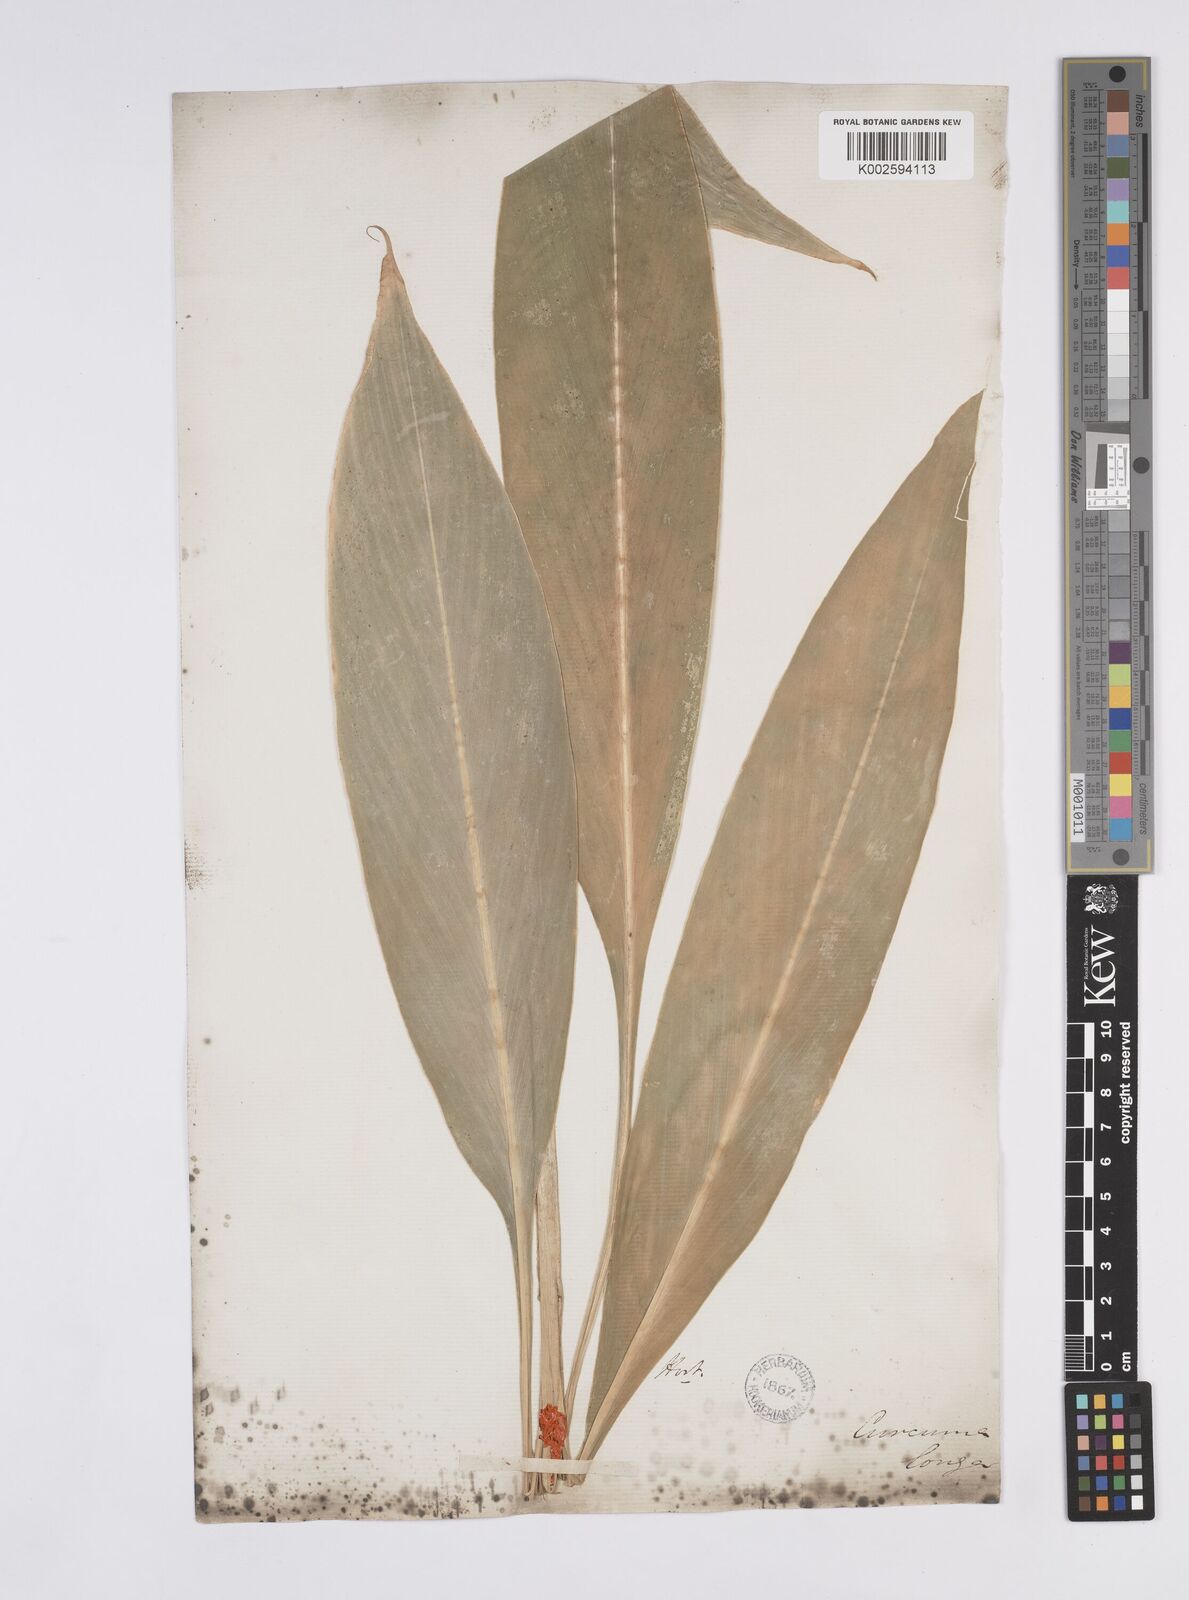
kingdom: Plantae
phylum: Tracheophyta
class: Liliopsida
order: Zingiberales
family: Zingiberaceae
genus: Curcuma
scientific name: Curcuma longa
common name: Turmeric
